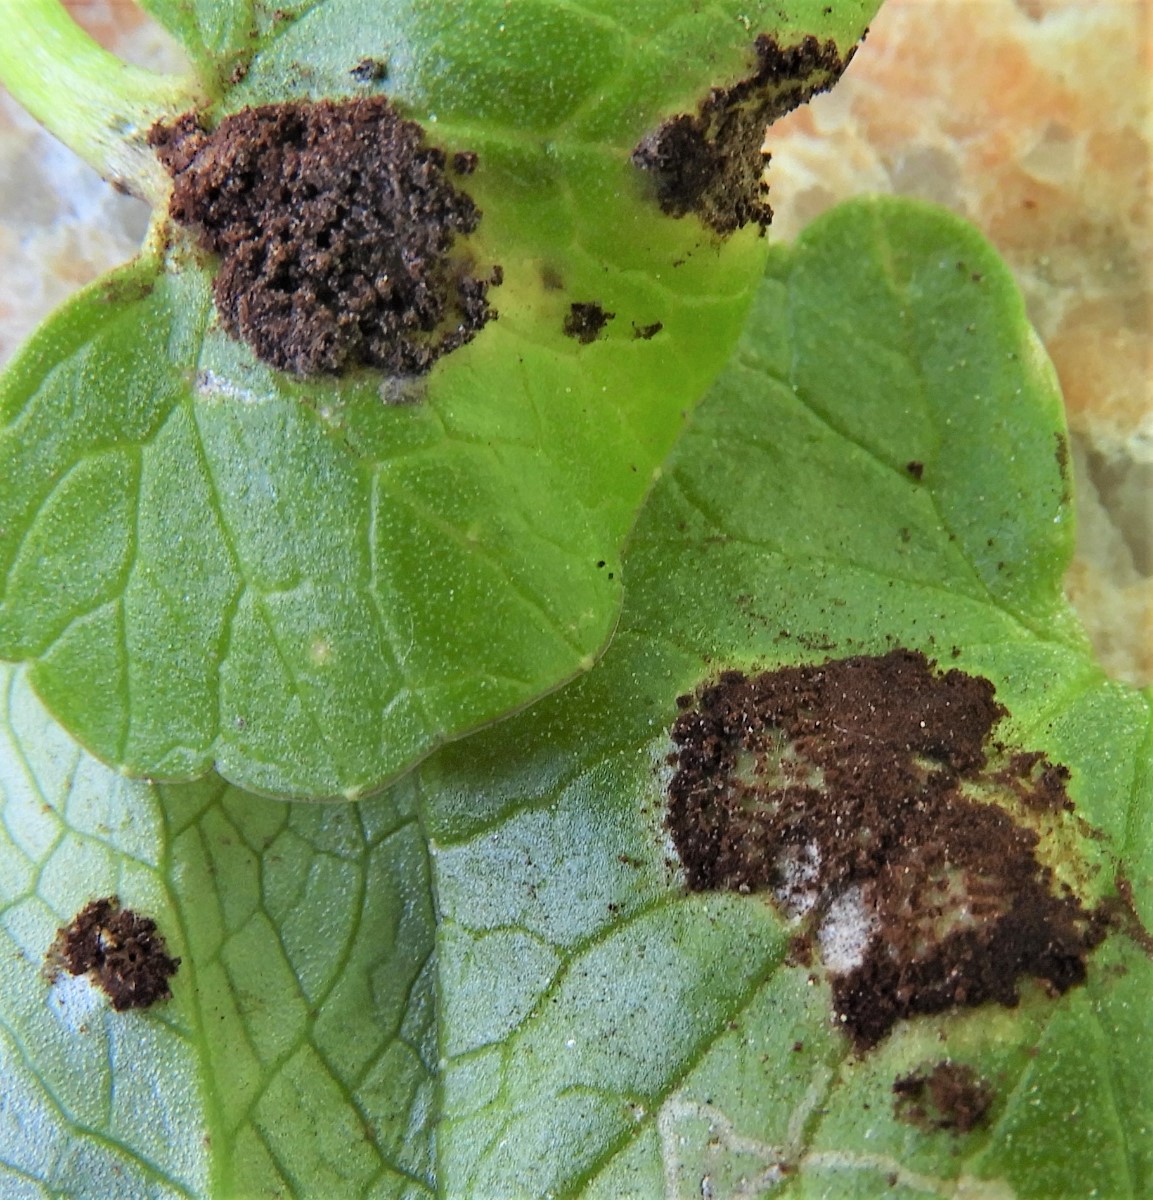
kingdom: Fungi
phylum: Basidiomycota
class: Pucciniomycetes
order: Pucciniales
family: Pucciniaceae
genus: Uromyces
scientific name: Uromyces ficariae
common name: vorterod-encellerust
